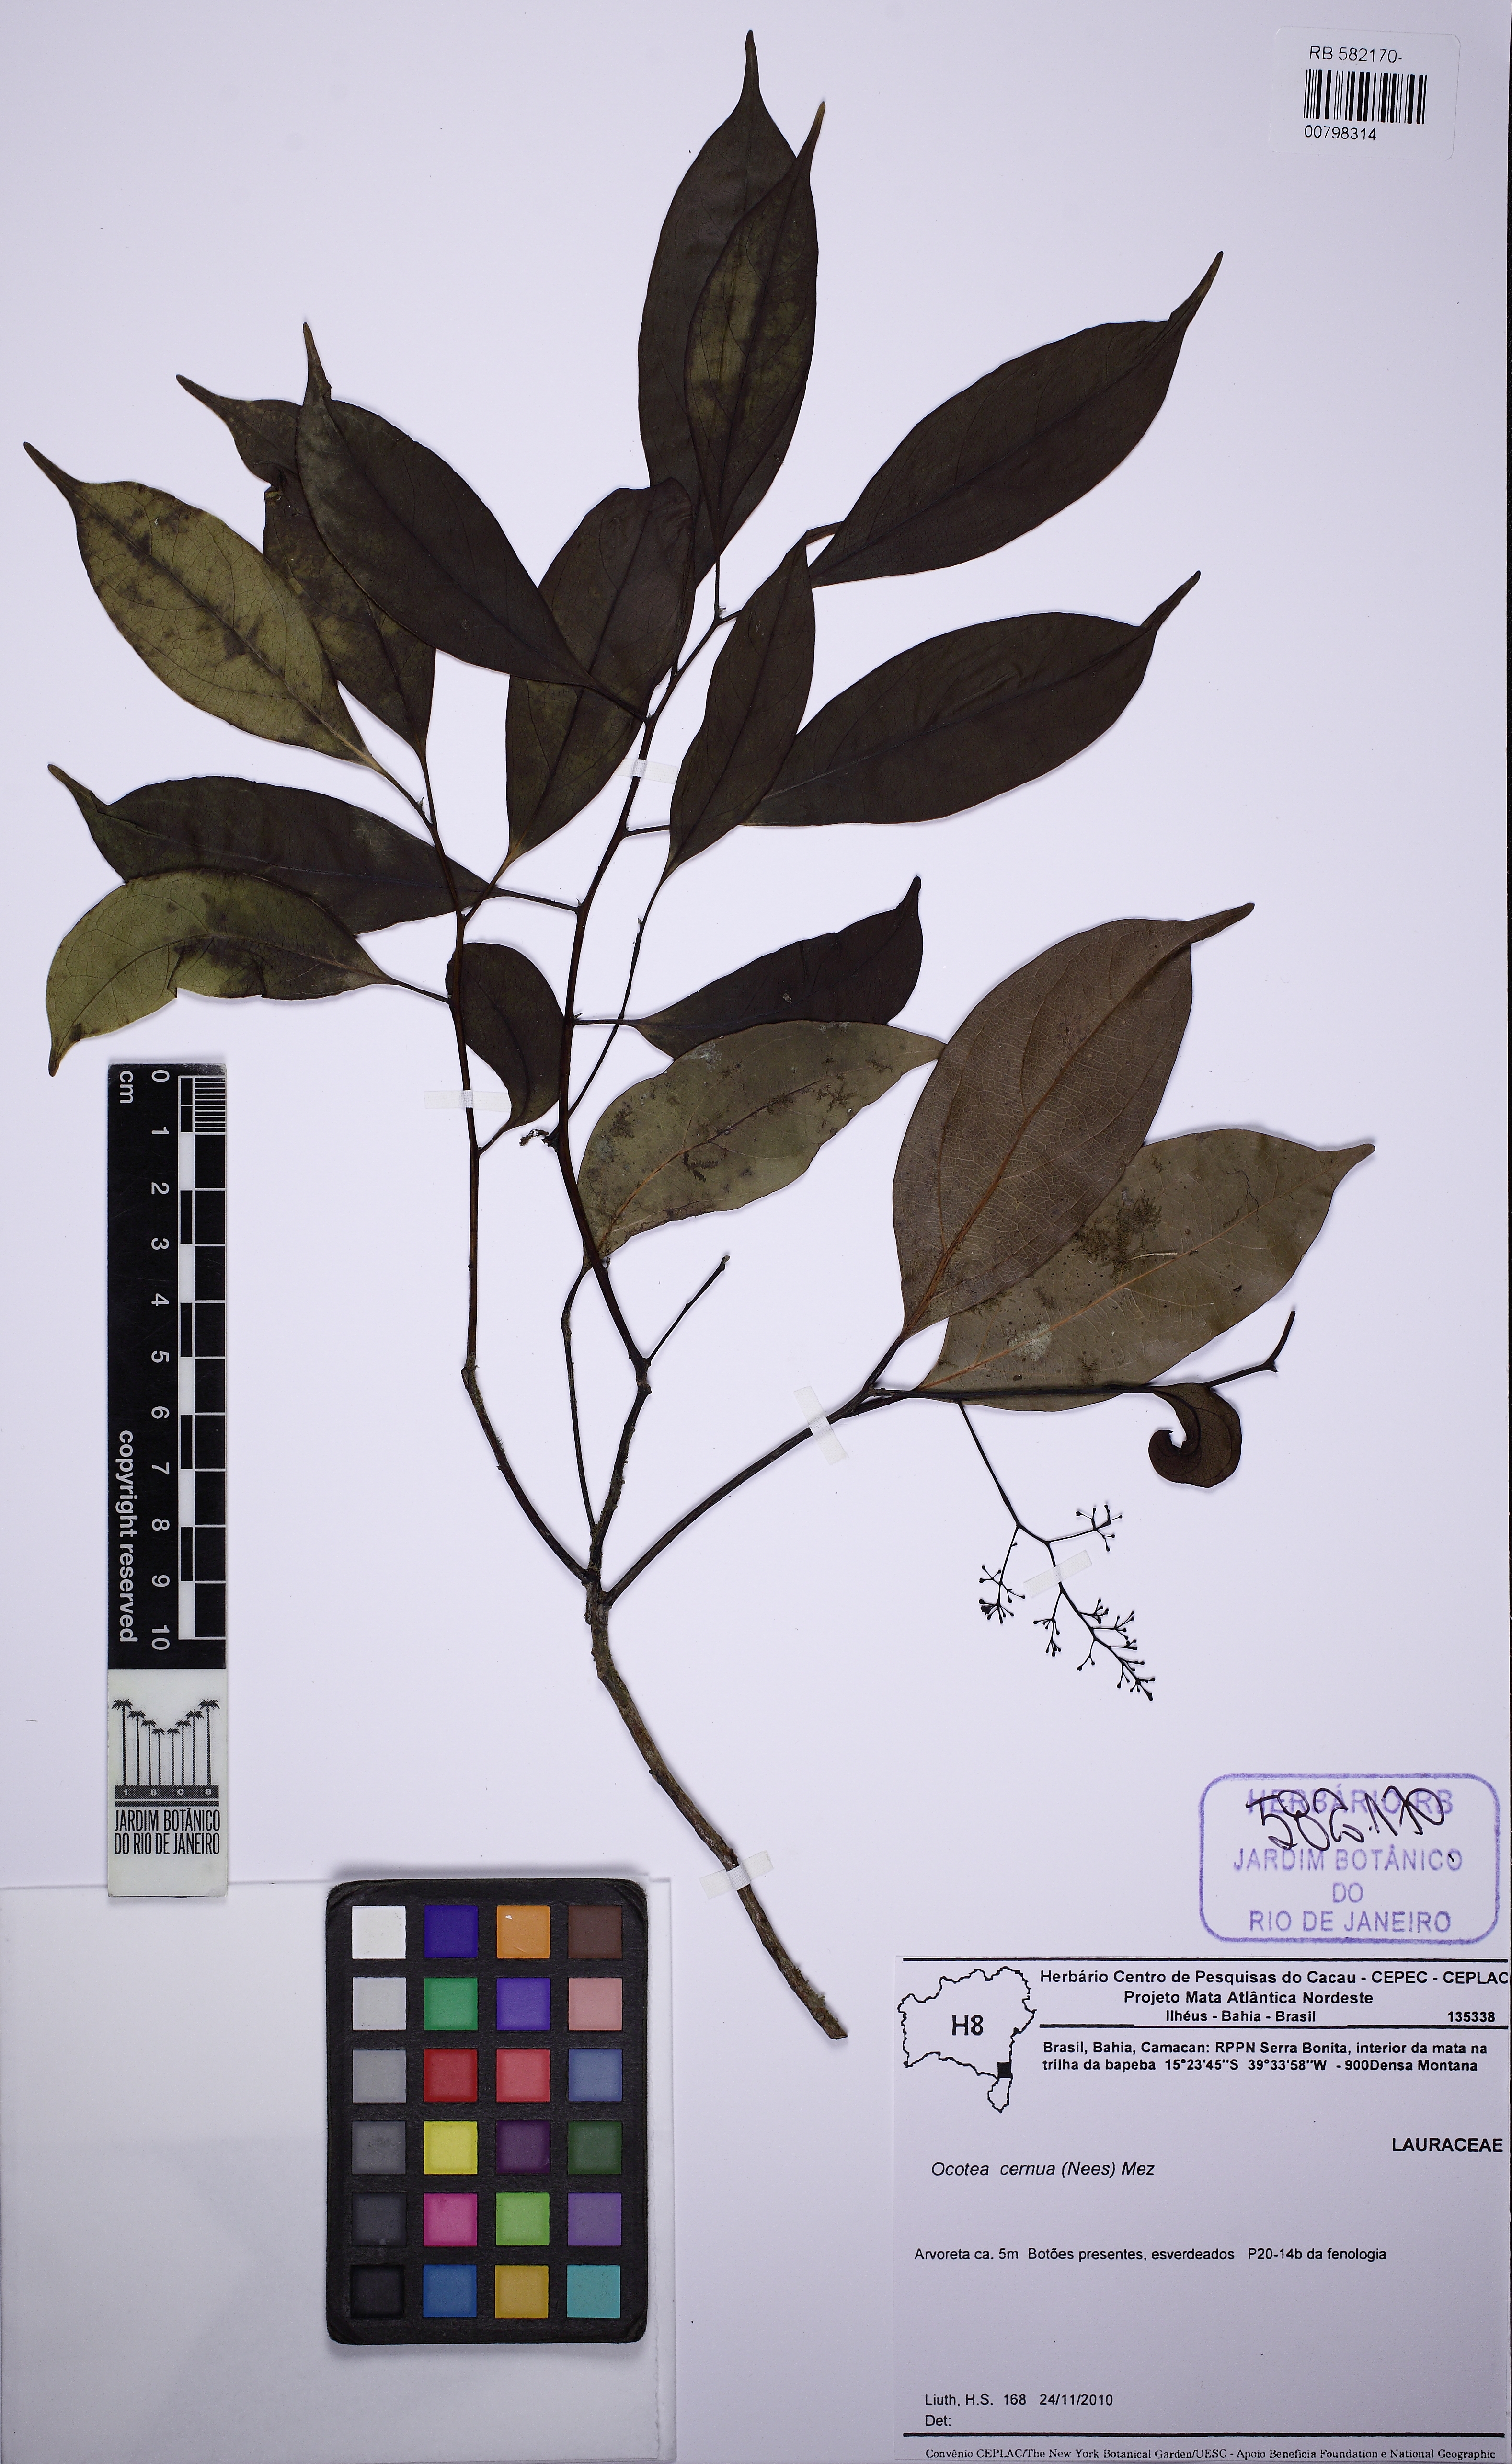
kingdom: Plantae
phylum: Tracheophyta
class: Magnoliopsida
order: Laurales
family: Lauraceae
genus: Ocotea
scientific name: Ocotea leptobotra
